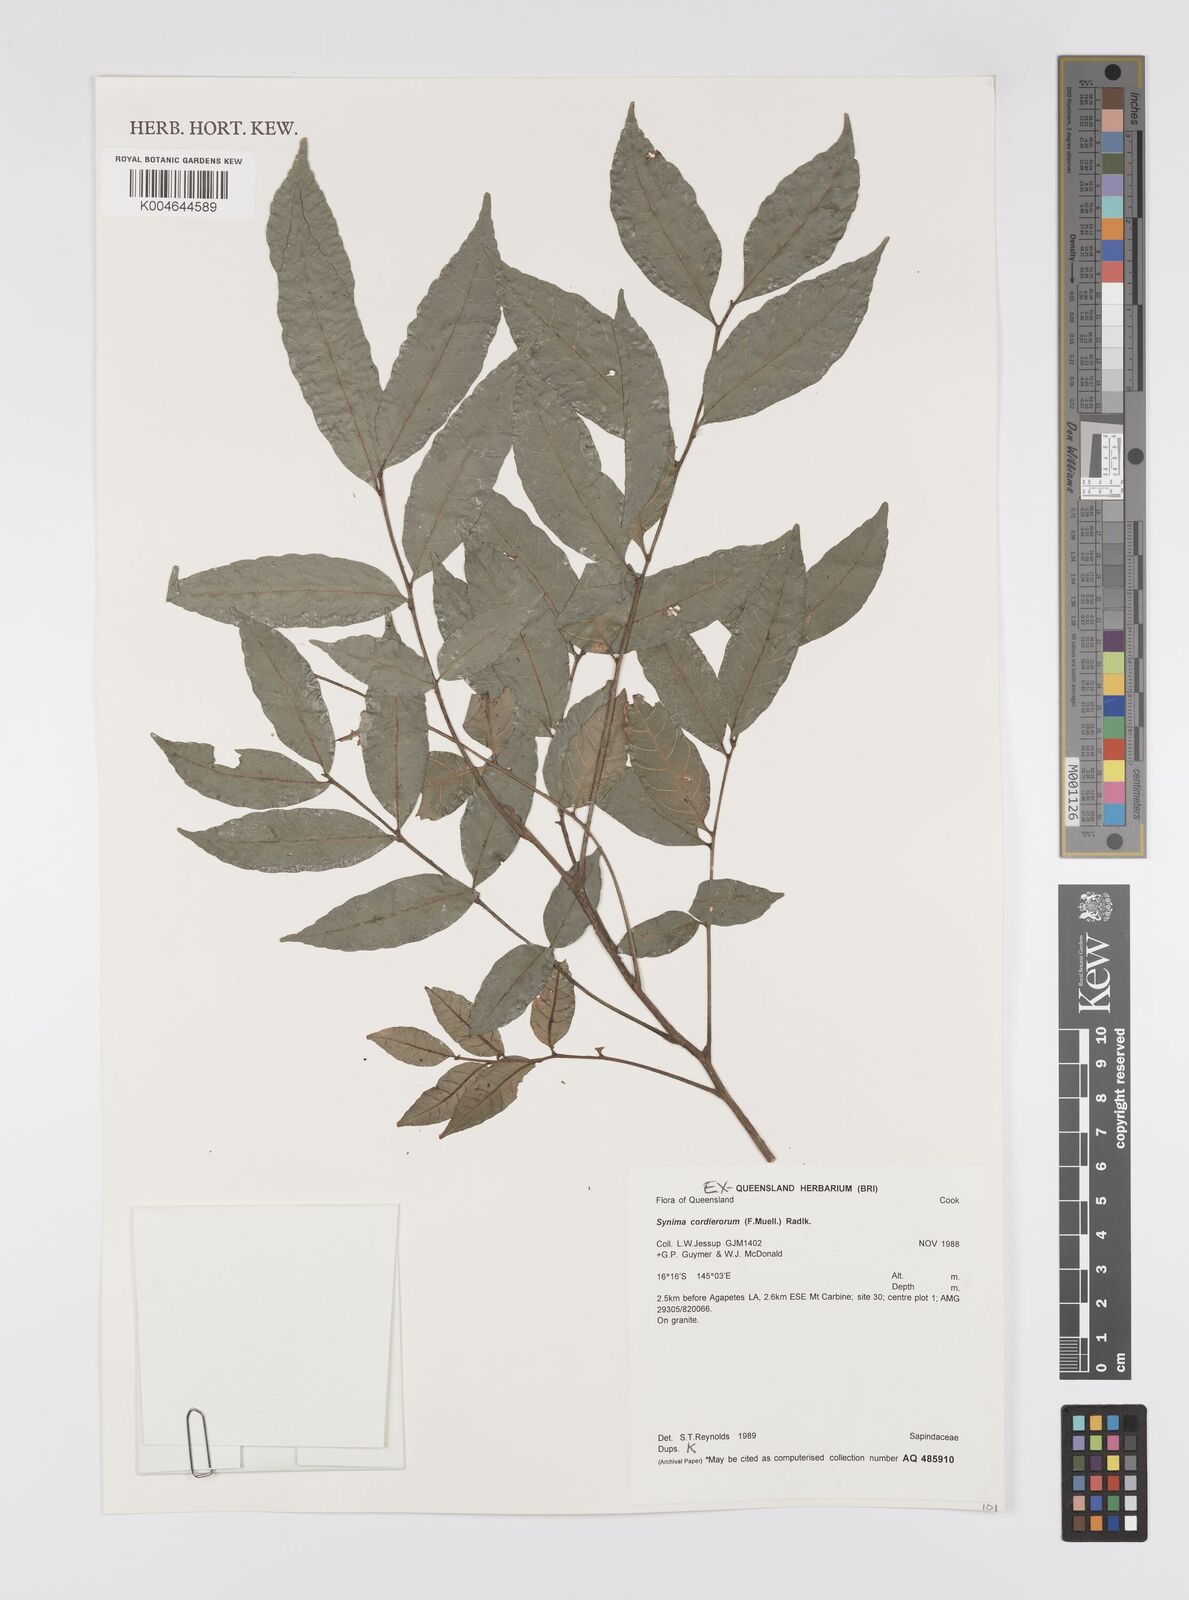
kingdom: Plantae
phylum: Tracheophyta
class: Magnoliopsida
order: Sapindales
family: Sapindaceae
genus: Synima
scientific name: Synima
